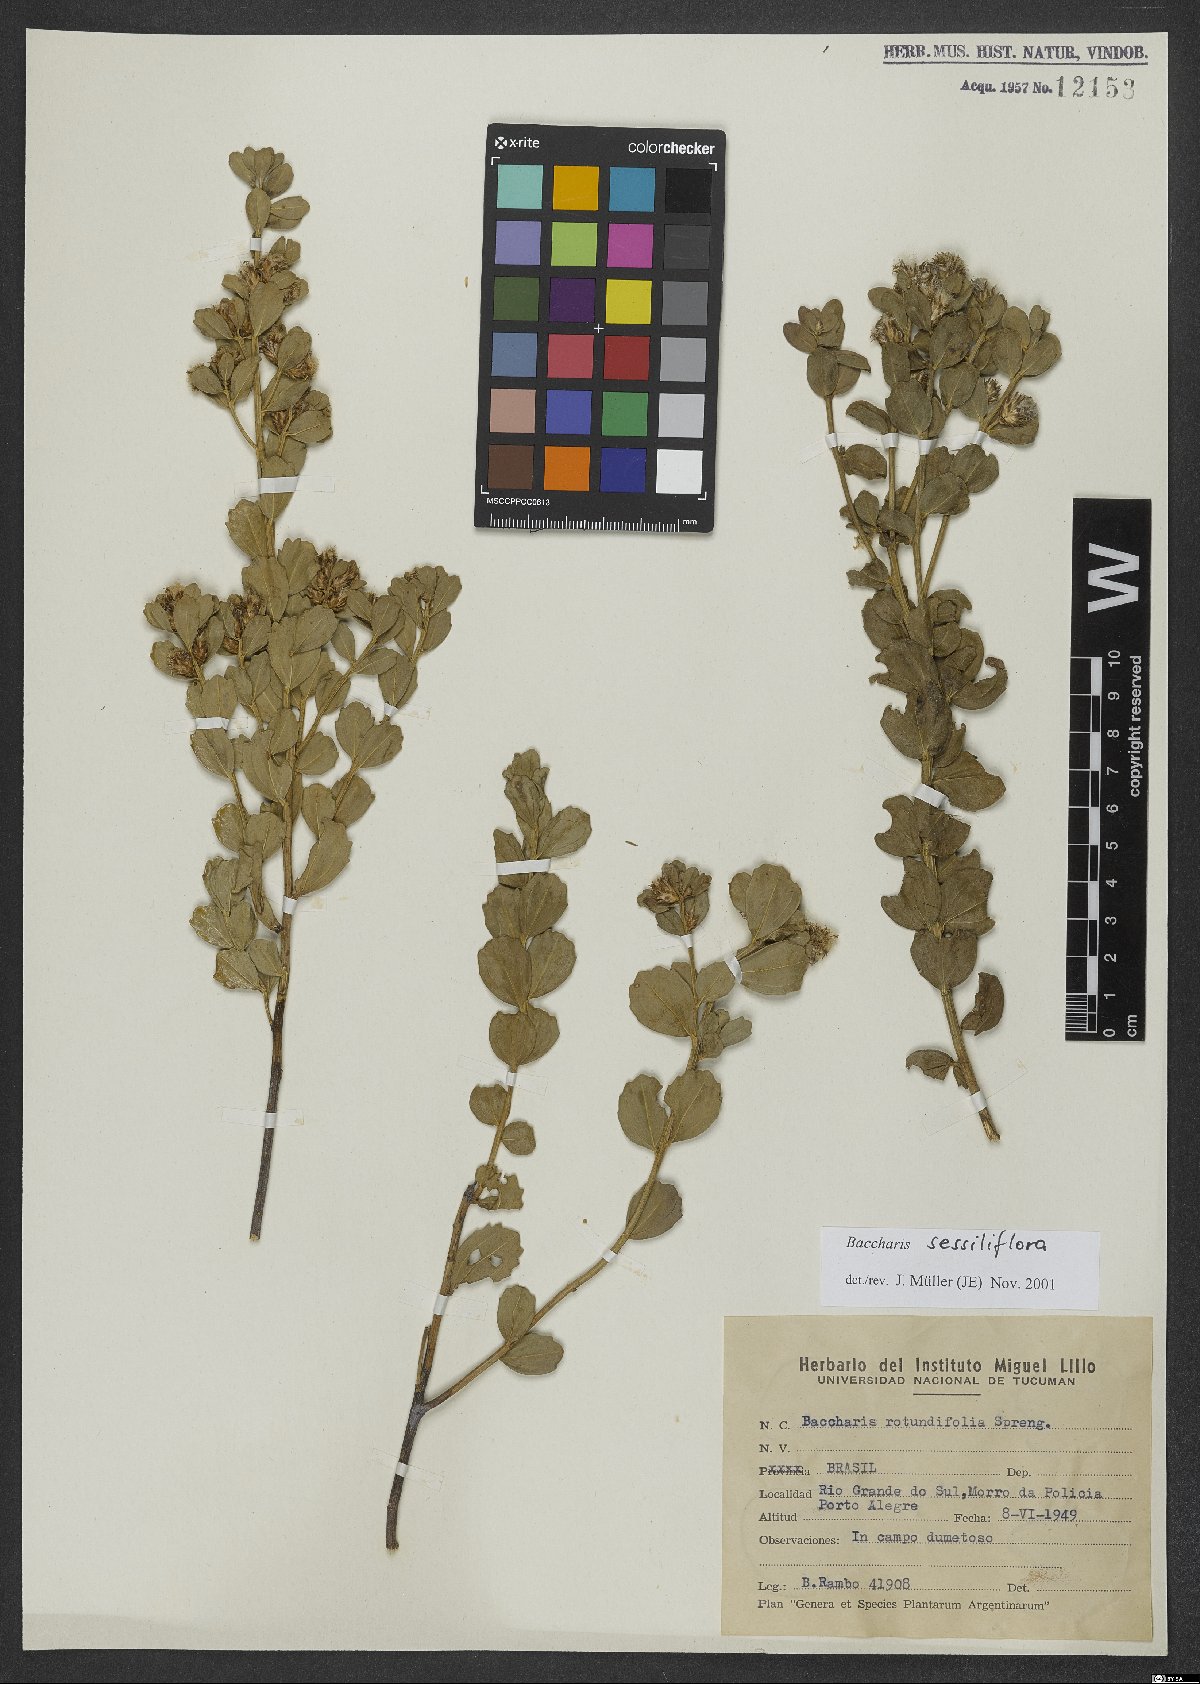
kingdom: Plantae
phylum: Tracheophyta
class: Magnoliopsida
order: Asterales
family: Asteraceae
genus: Baccharis
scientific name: Baccharis sessiliflora
